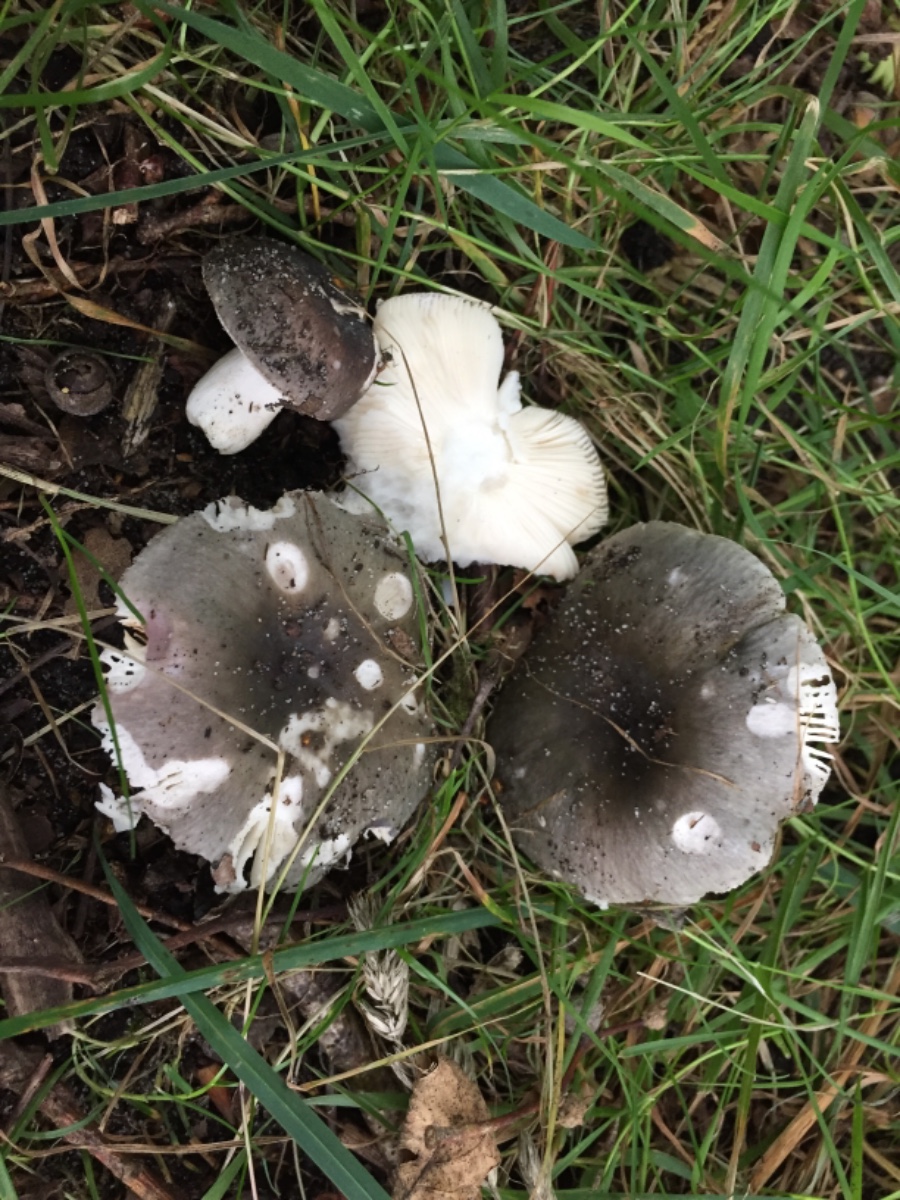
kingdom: Fungi
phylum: Basidiomycota
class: Agaricomycetes
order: Russulales
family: Russulaceae
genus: Russula
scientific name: Russula grisea
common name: grålig skørhat
